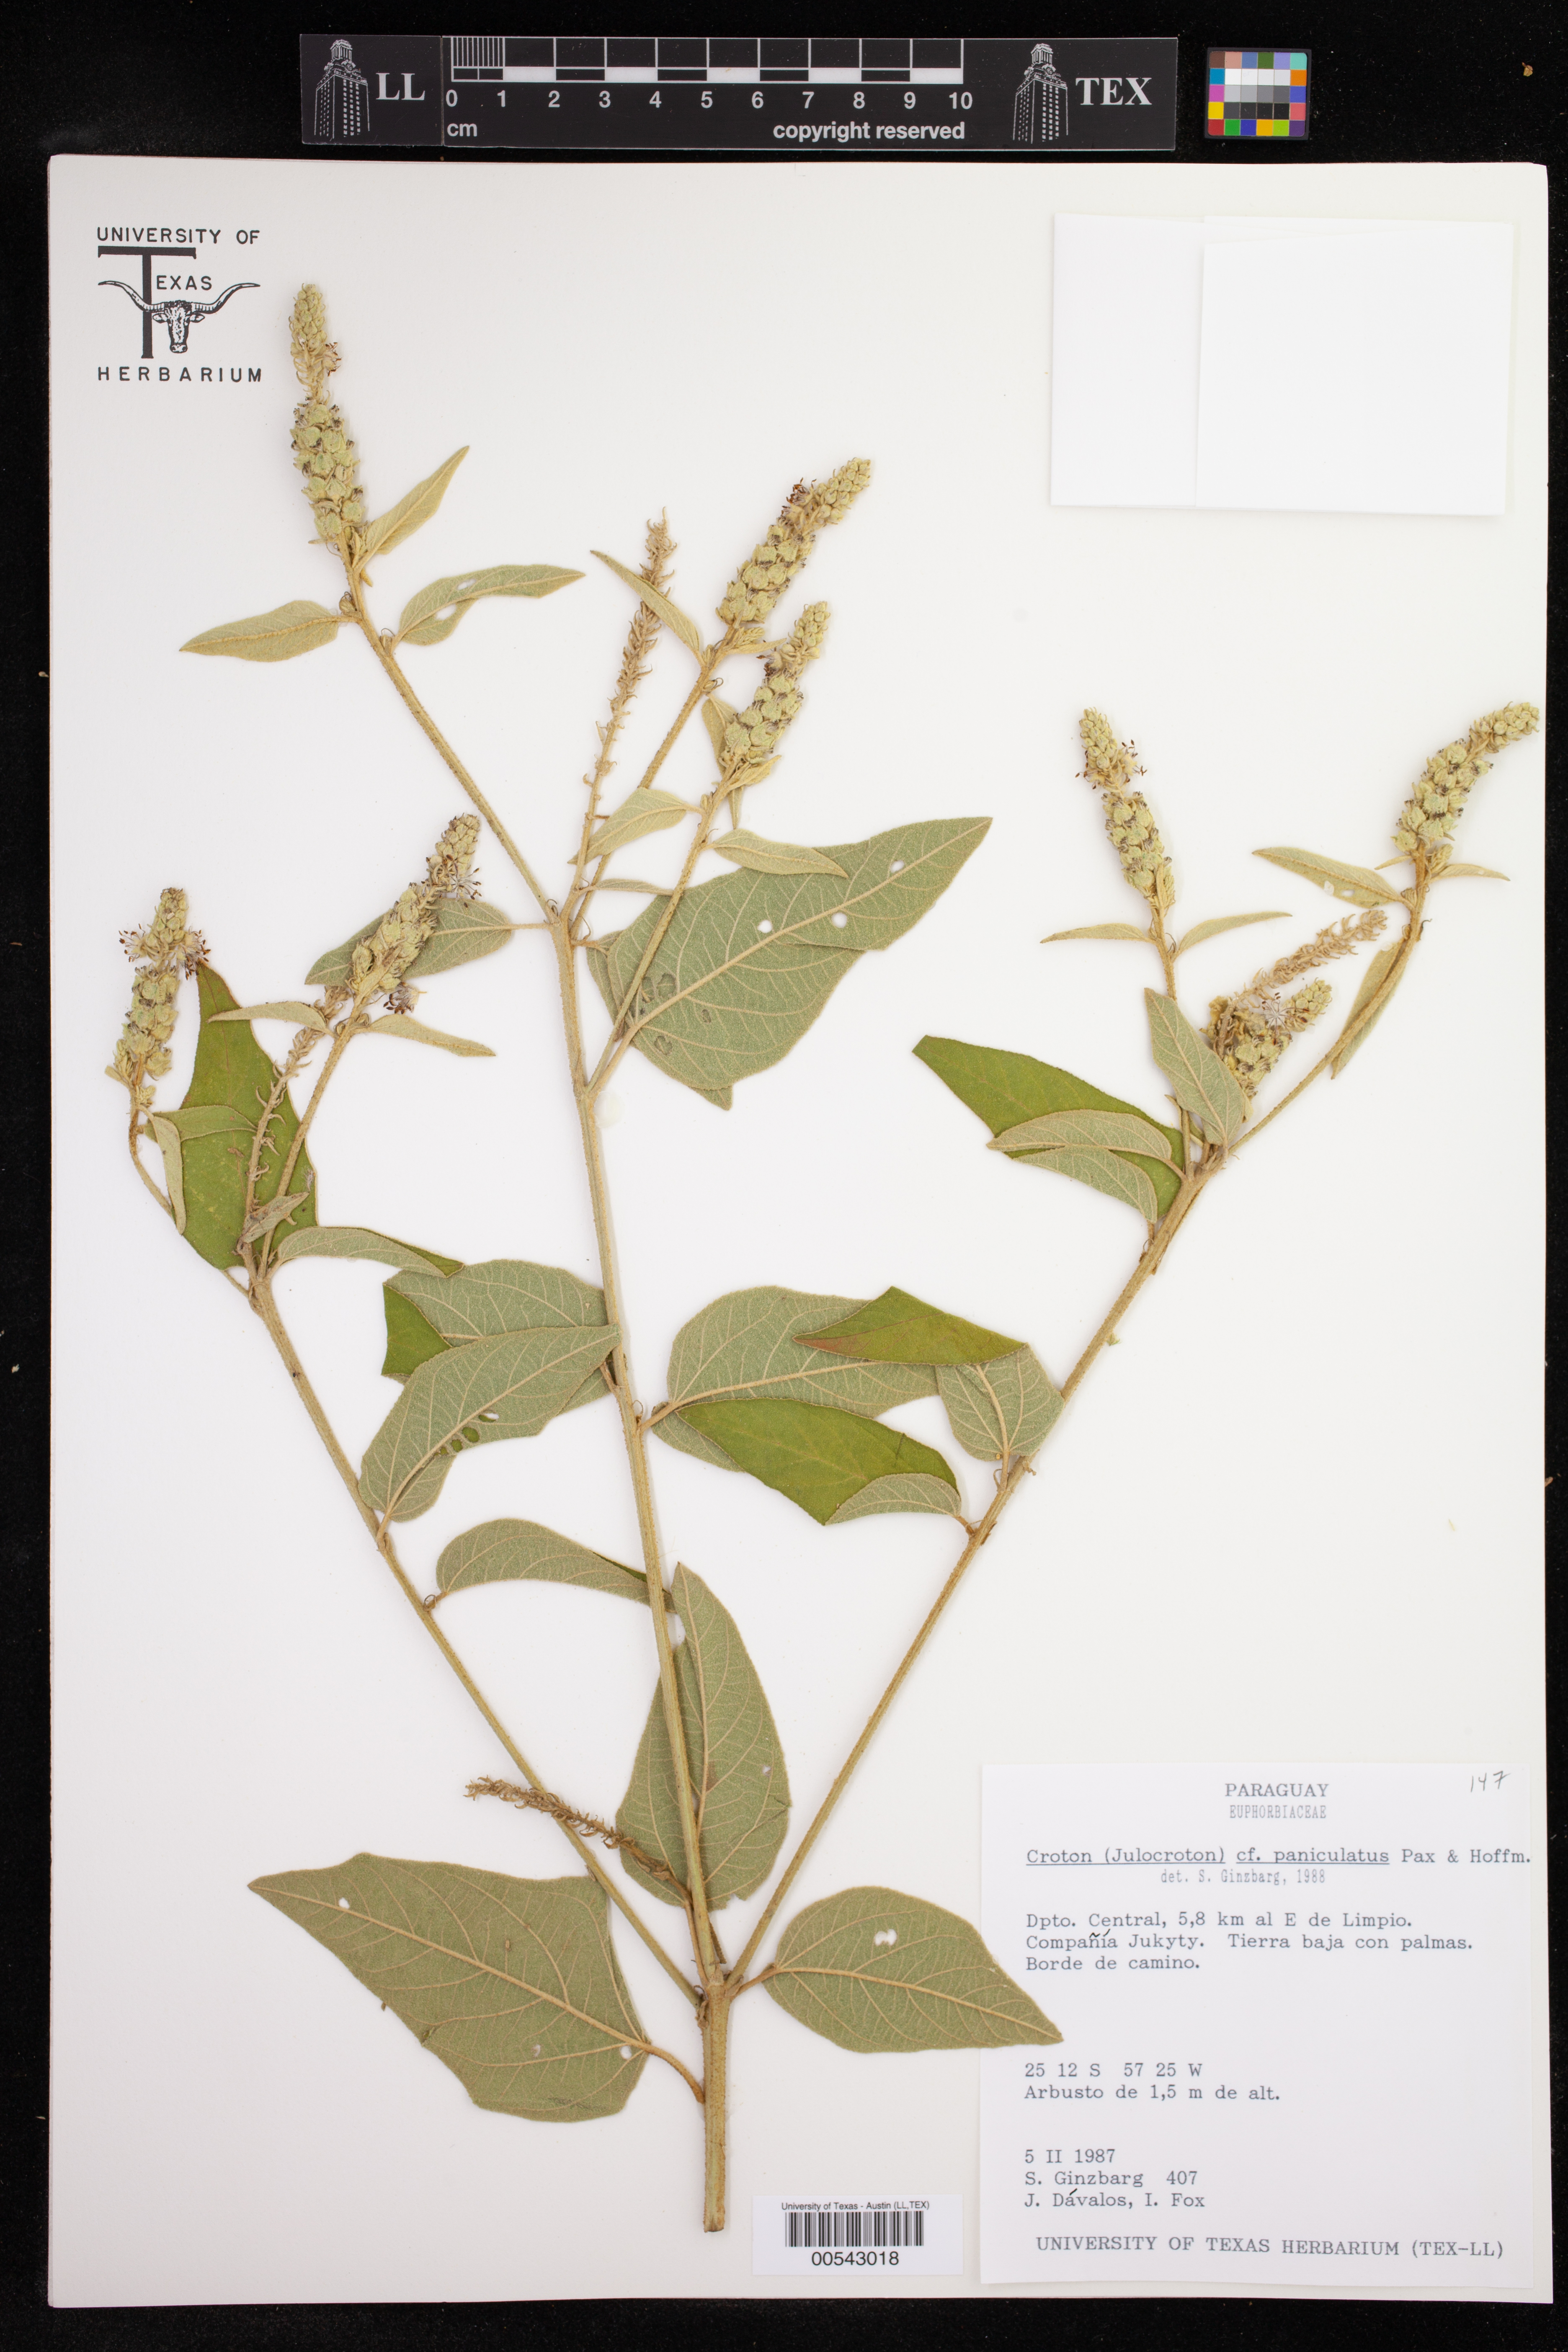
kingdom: Plantae
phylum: Tracheophyta
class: Magnoliopsida
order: Malpighiales
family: Euphorbiaceae
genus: Croton
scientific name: Croton fragrantulus
